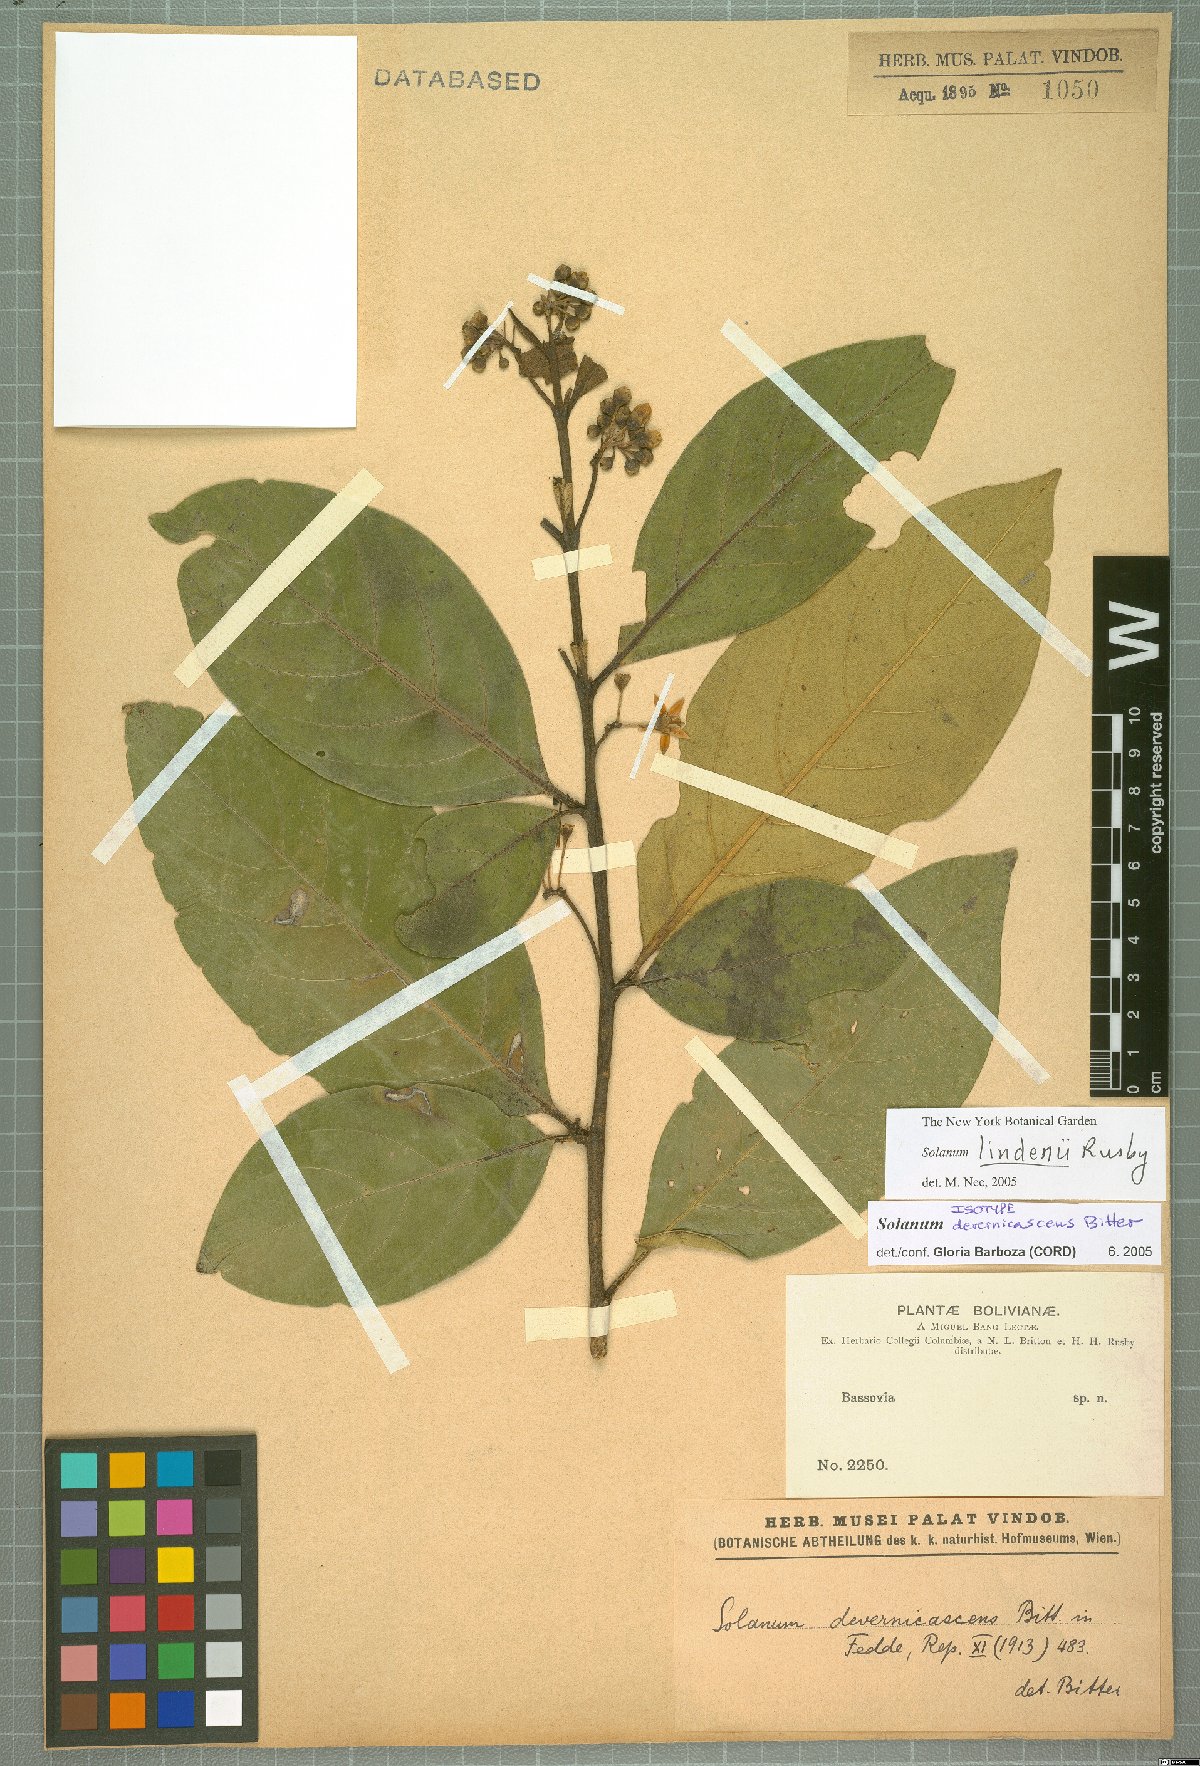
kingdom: Plantae
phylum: Tracheophyta
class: Magnoliopsida
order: Solanales
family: Solanaceae
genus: Solanum
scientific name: Solanum lindenii
